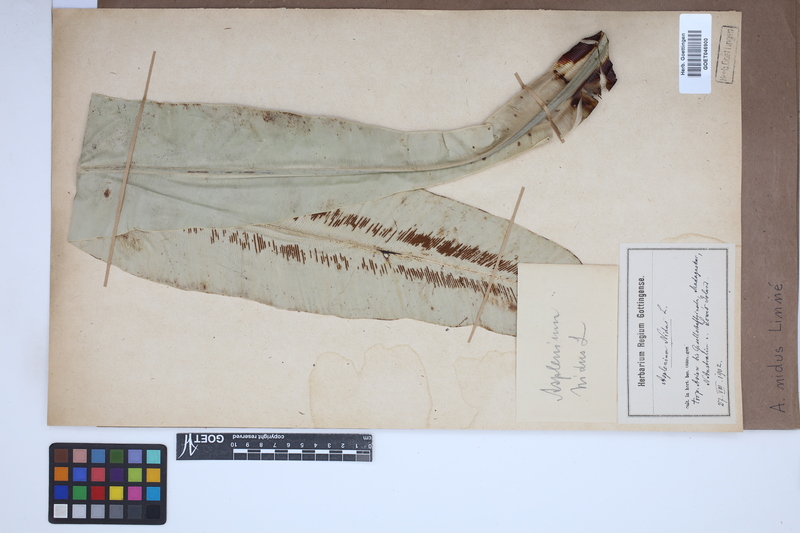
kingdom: Plantae
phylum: Tracheophyta
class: Polypodiopsida
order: Polypodiales
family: Aspleniaceae
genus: Asplenium
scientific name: Asplenium nidus
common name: Bird's-nest fern
